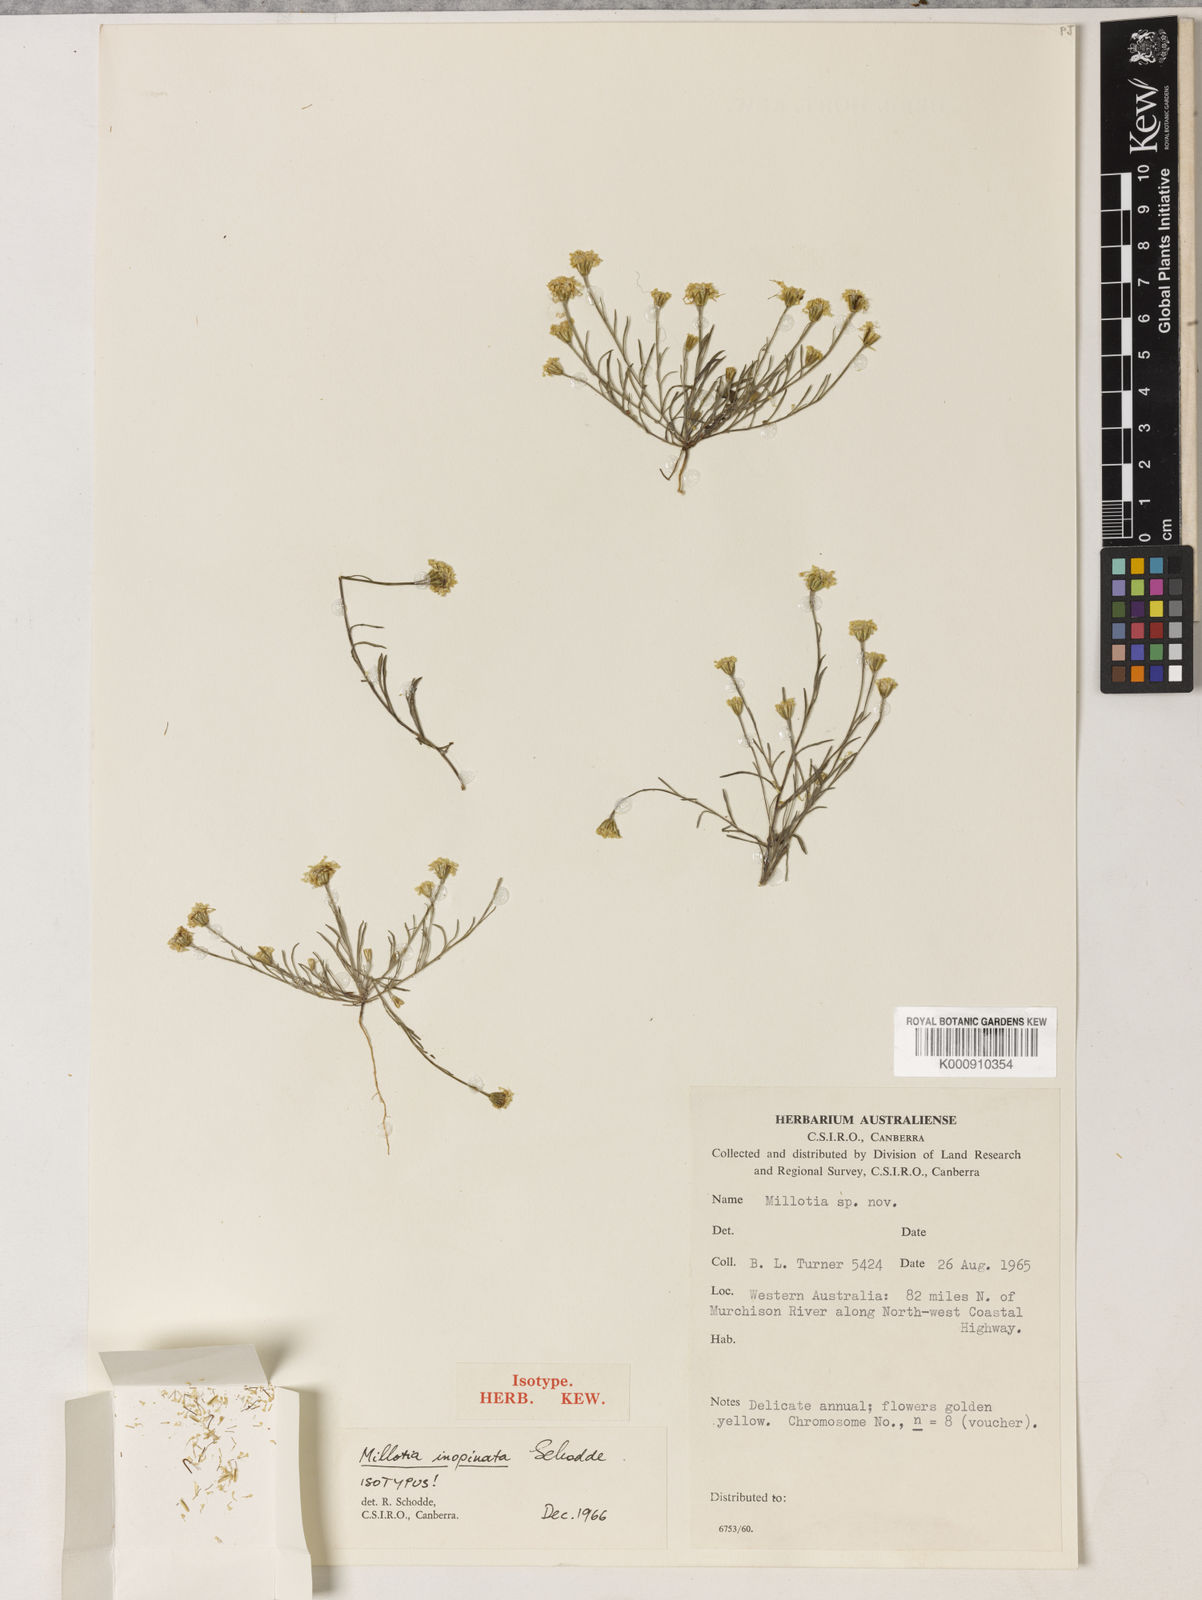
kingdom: Plantae
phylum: Tracheophyta
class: Magnoliopsida
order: Asterales
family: Asteraceae
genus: Millotia
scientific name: Millotia depauperata
